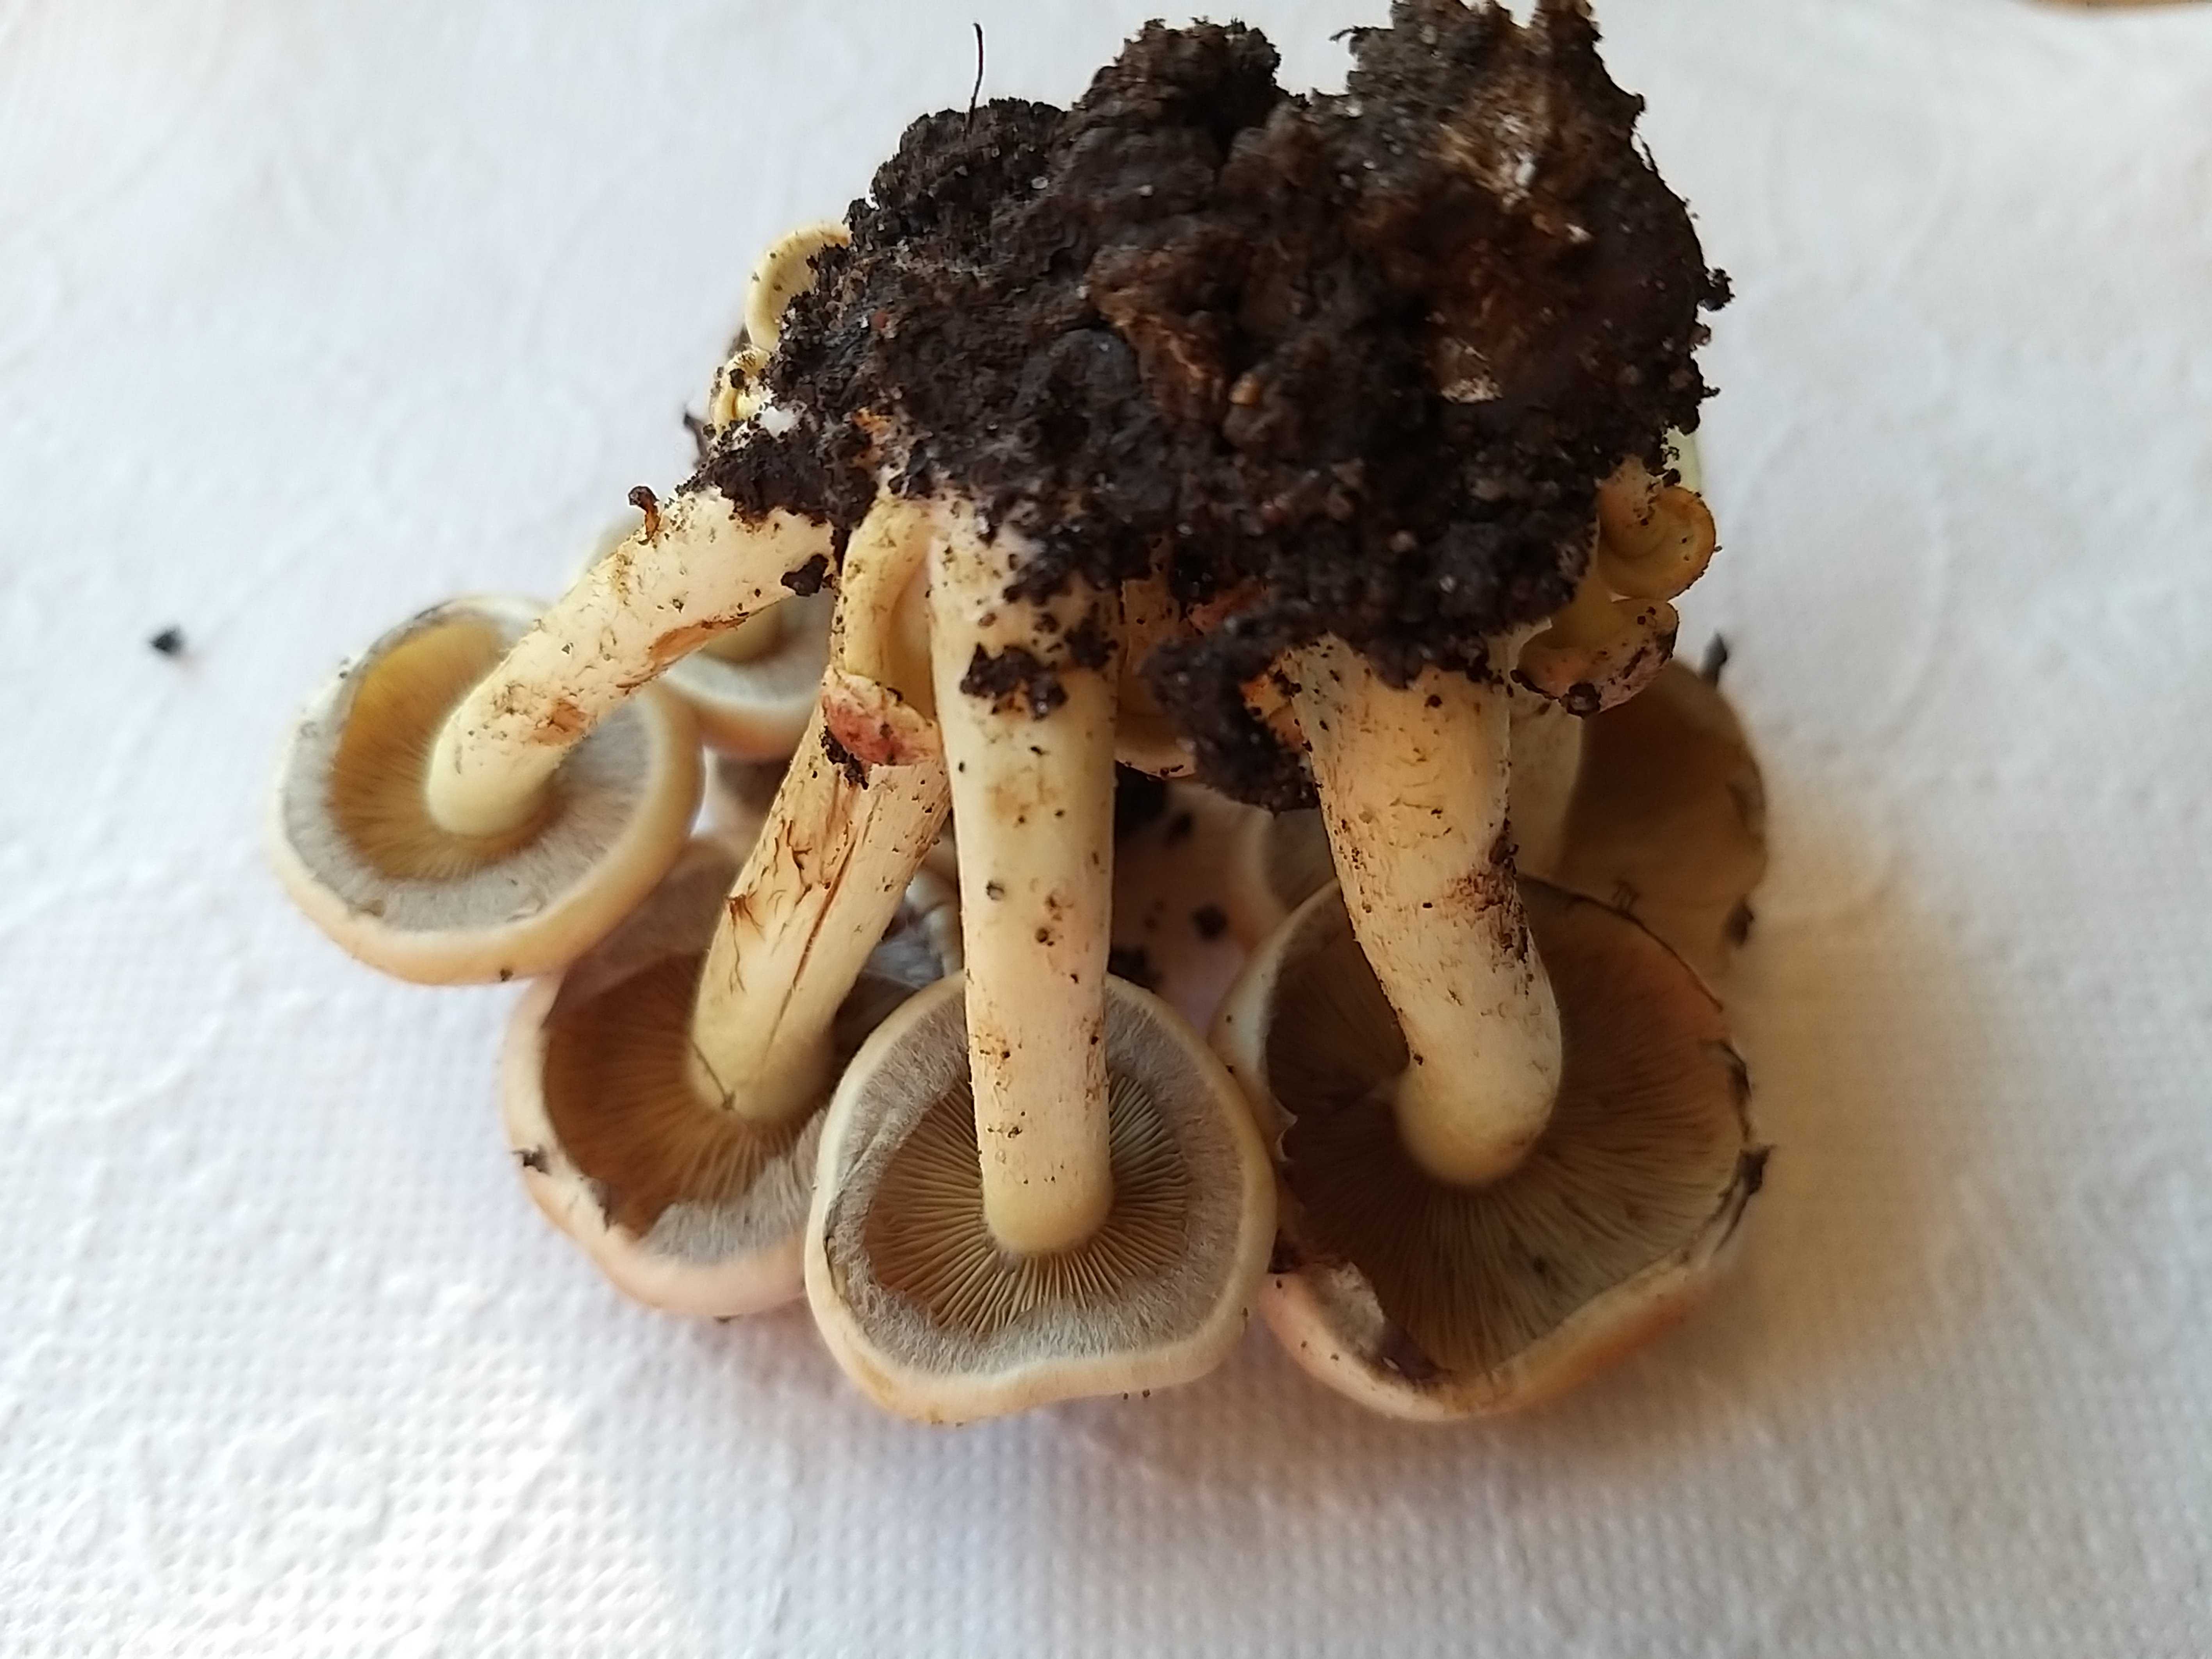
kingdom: Fungi
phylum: Basidiomycota
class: Agaricomycetes
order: Agaricales
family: Strophariaceae
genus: Hypholoma
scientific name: Hypholoma fasciculare
